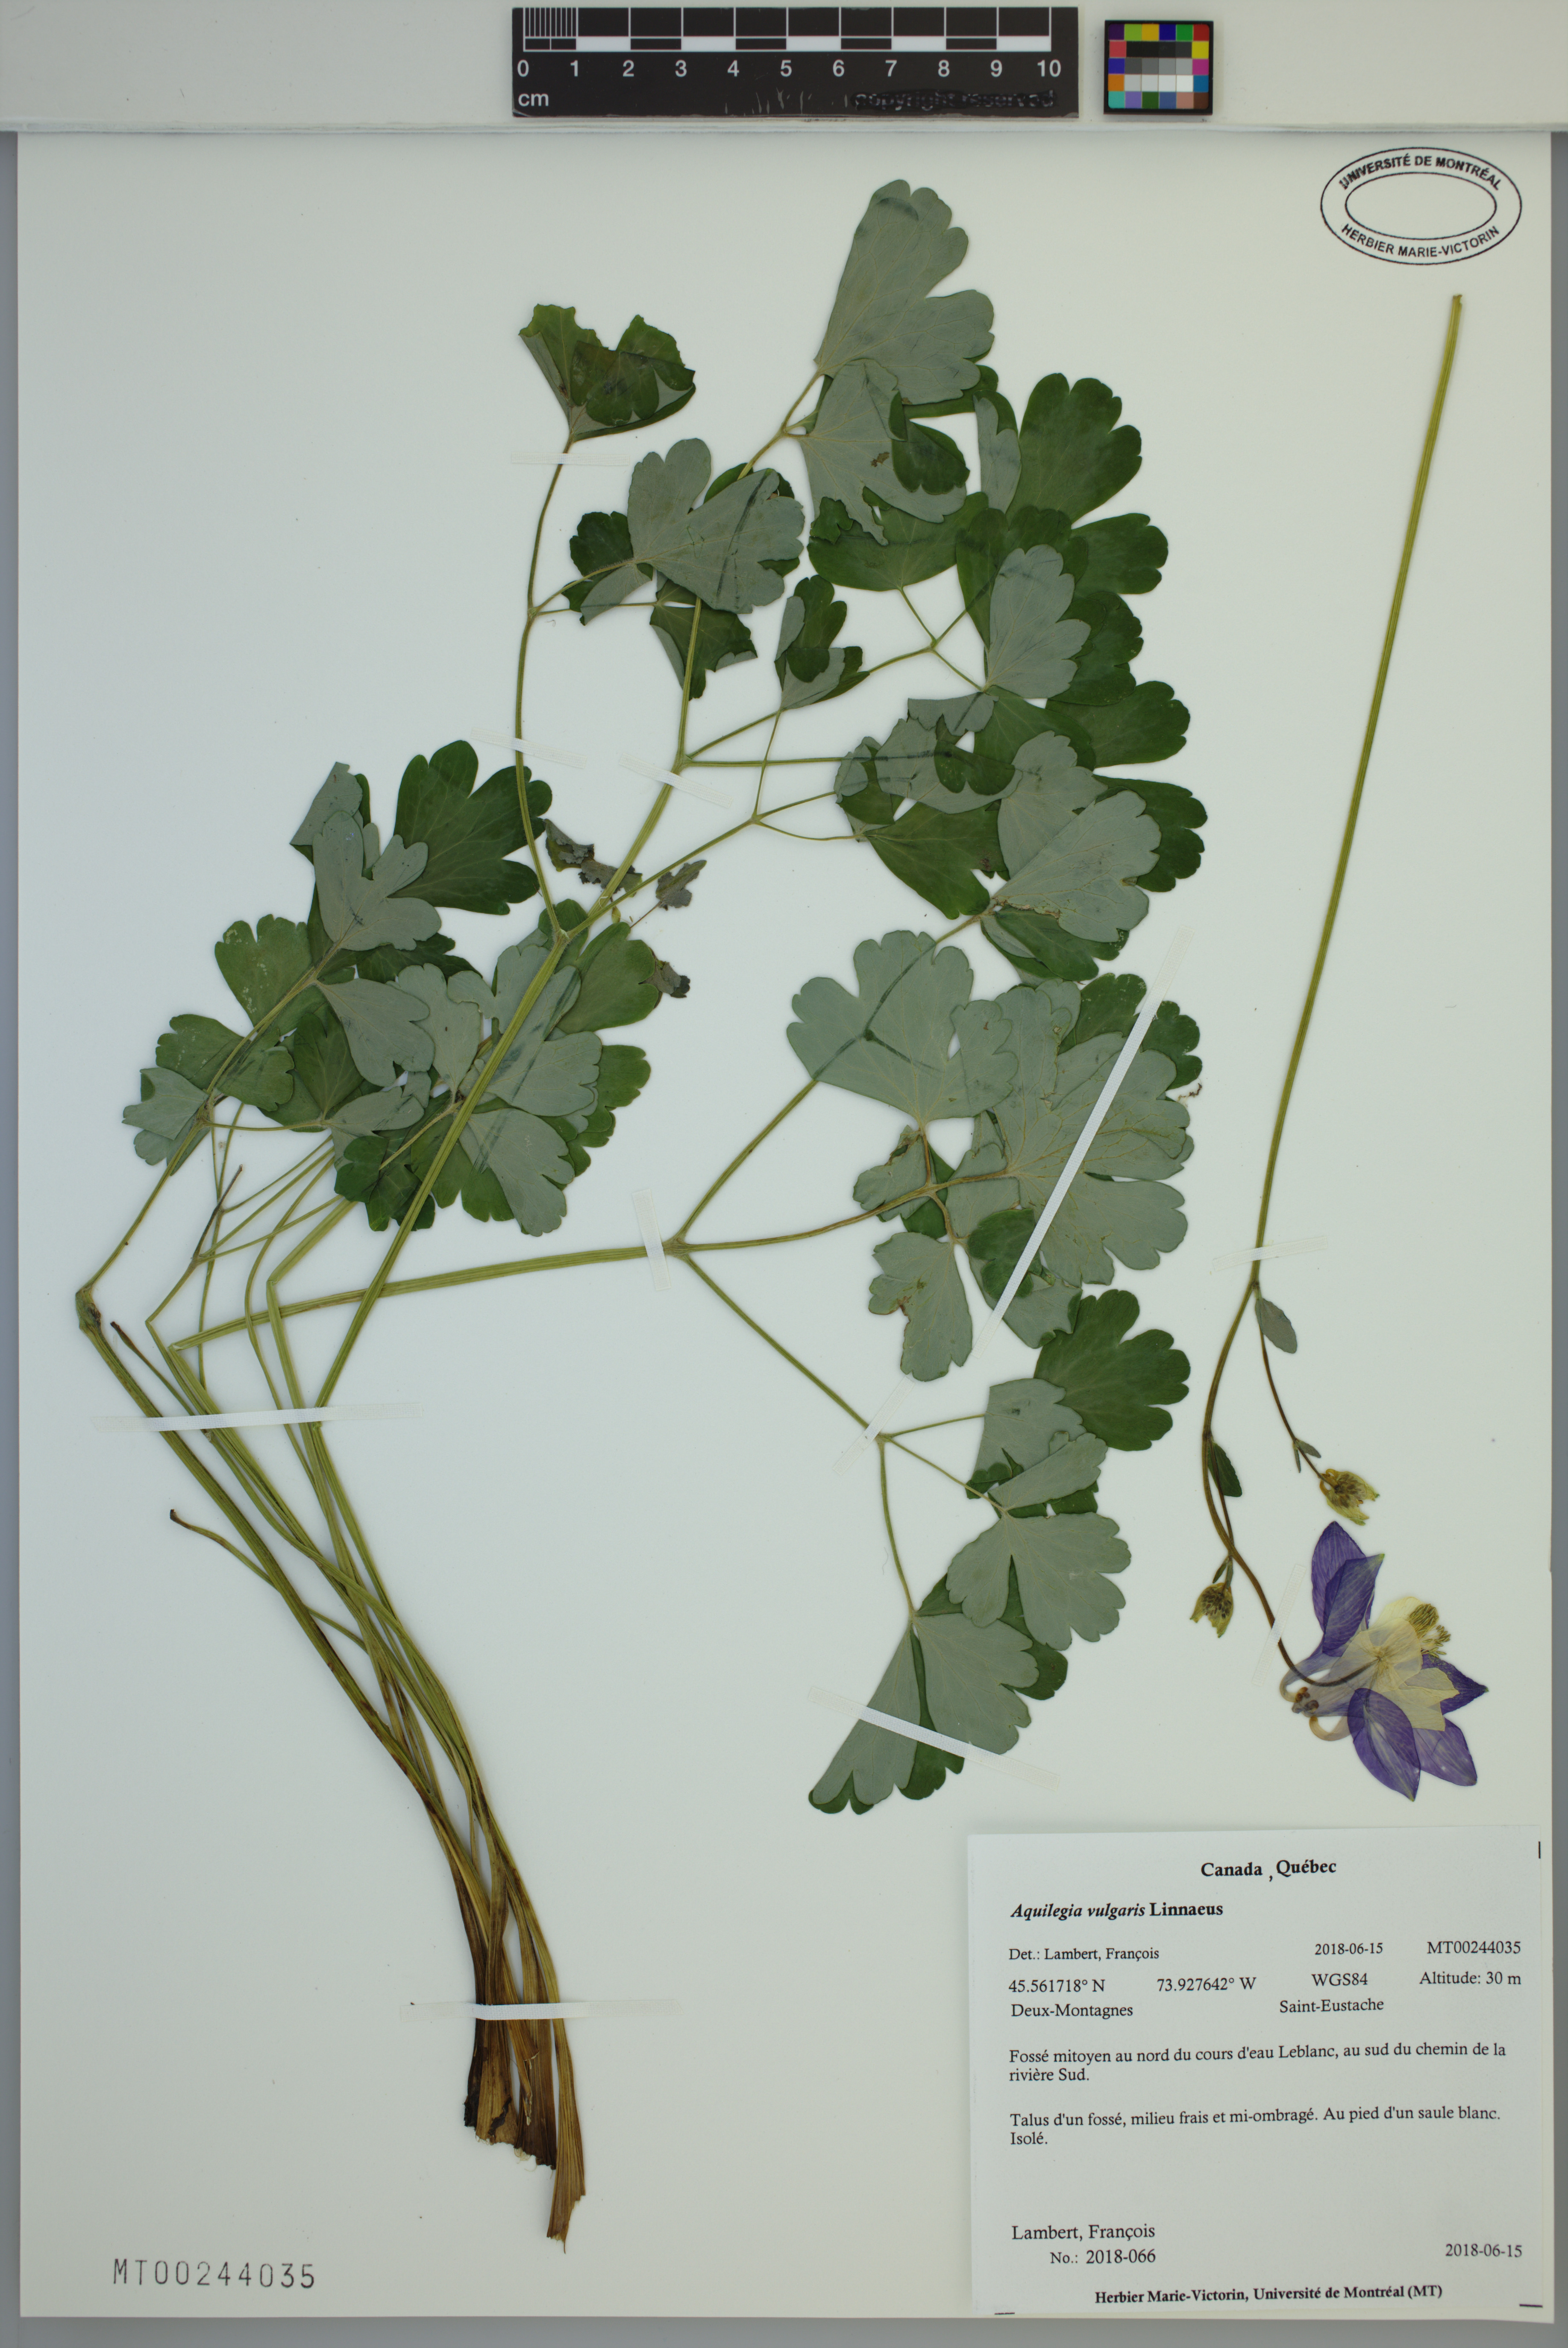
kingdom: Plantae
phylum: Tracheophyta
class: Magnoliopsida
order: Ranunculales
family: Ranunculaceae
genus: Aquilegia
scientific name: Aquilegia vulgaris
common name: Columbine
